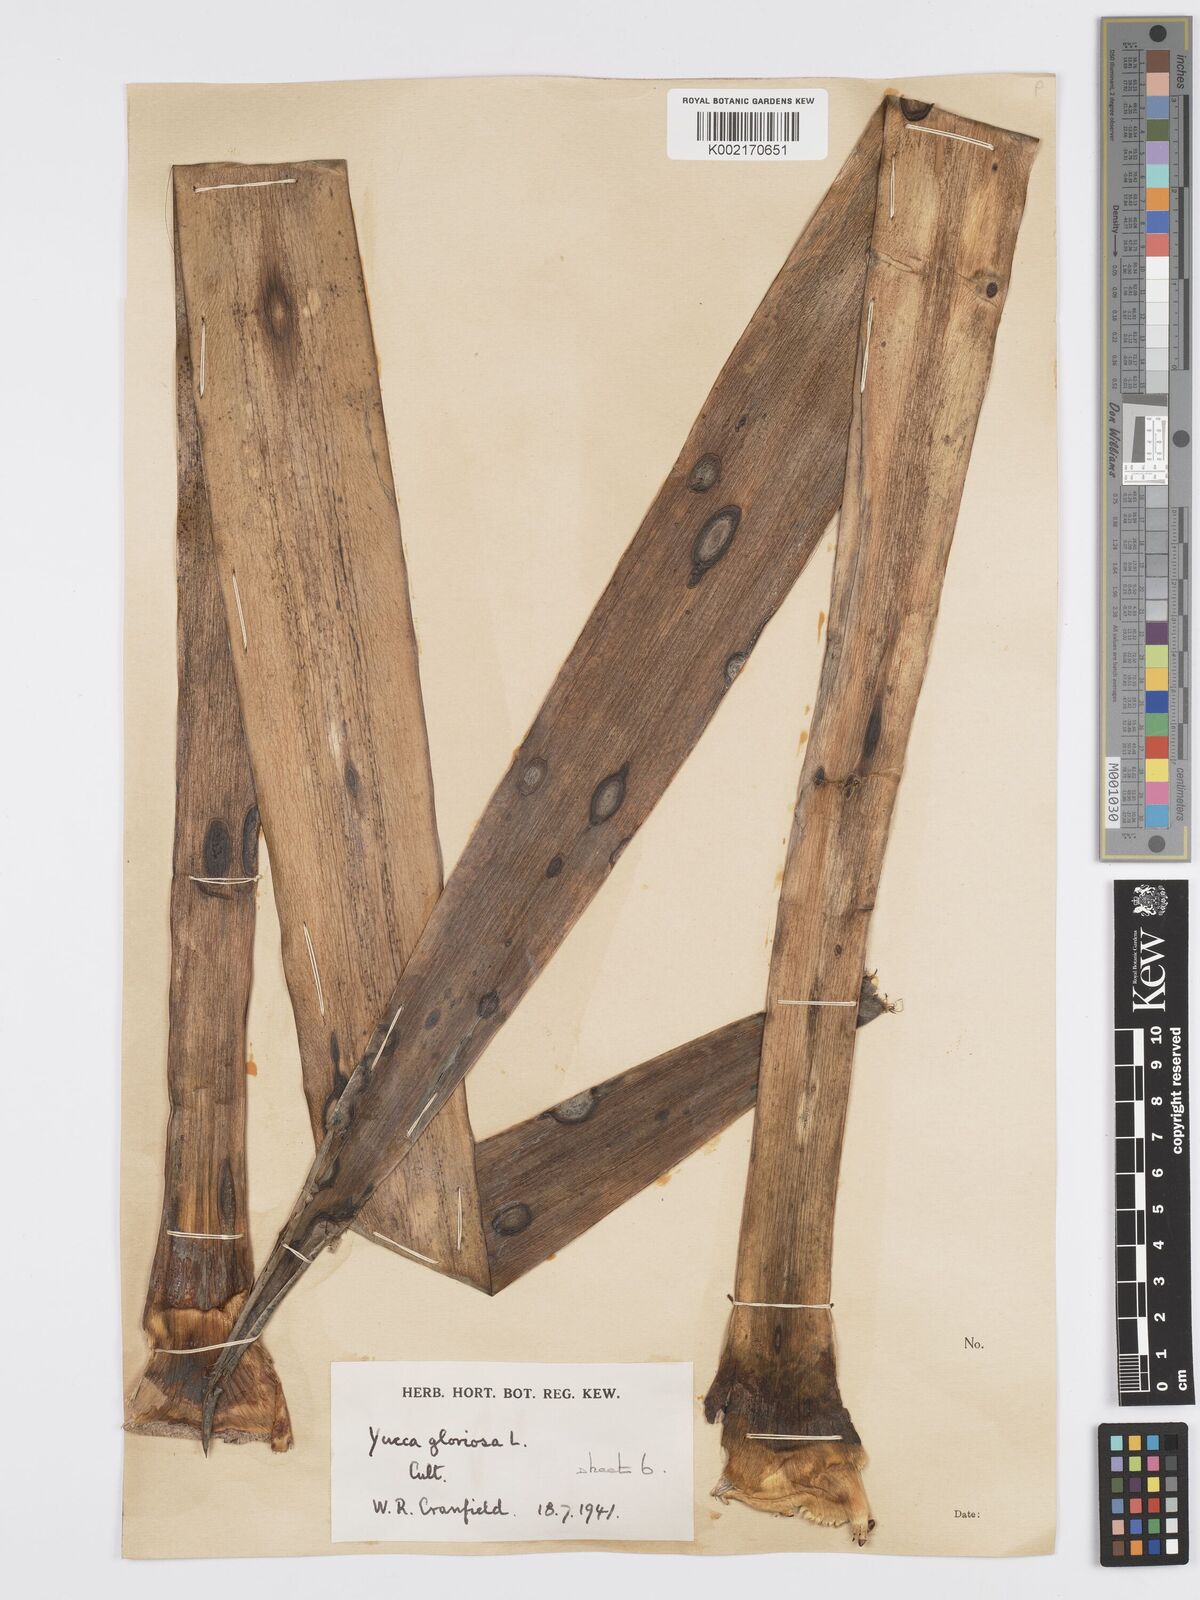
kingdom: Plantae
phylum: Tracheophyta
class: Liliopsida
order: Asparagales
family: Asparagaceae
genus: Yucca
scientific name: Yucca gloriosa
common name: Spanish-dagger
